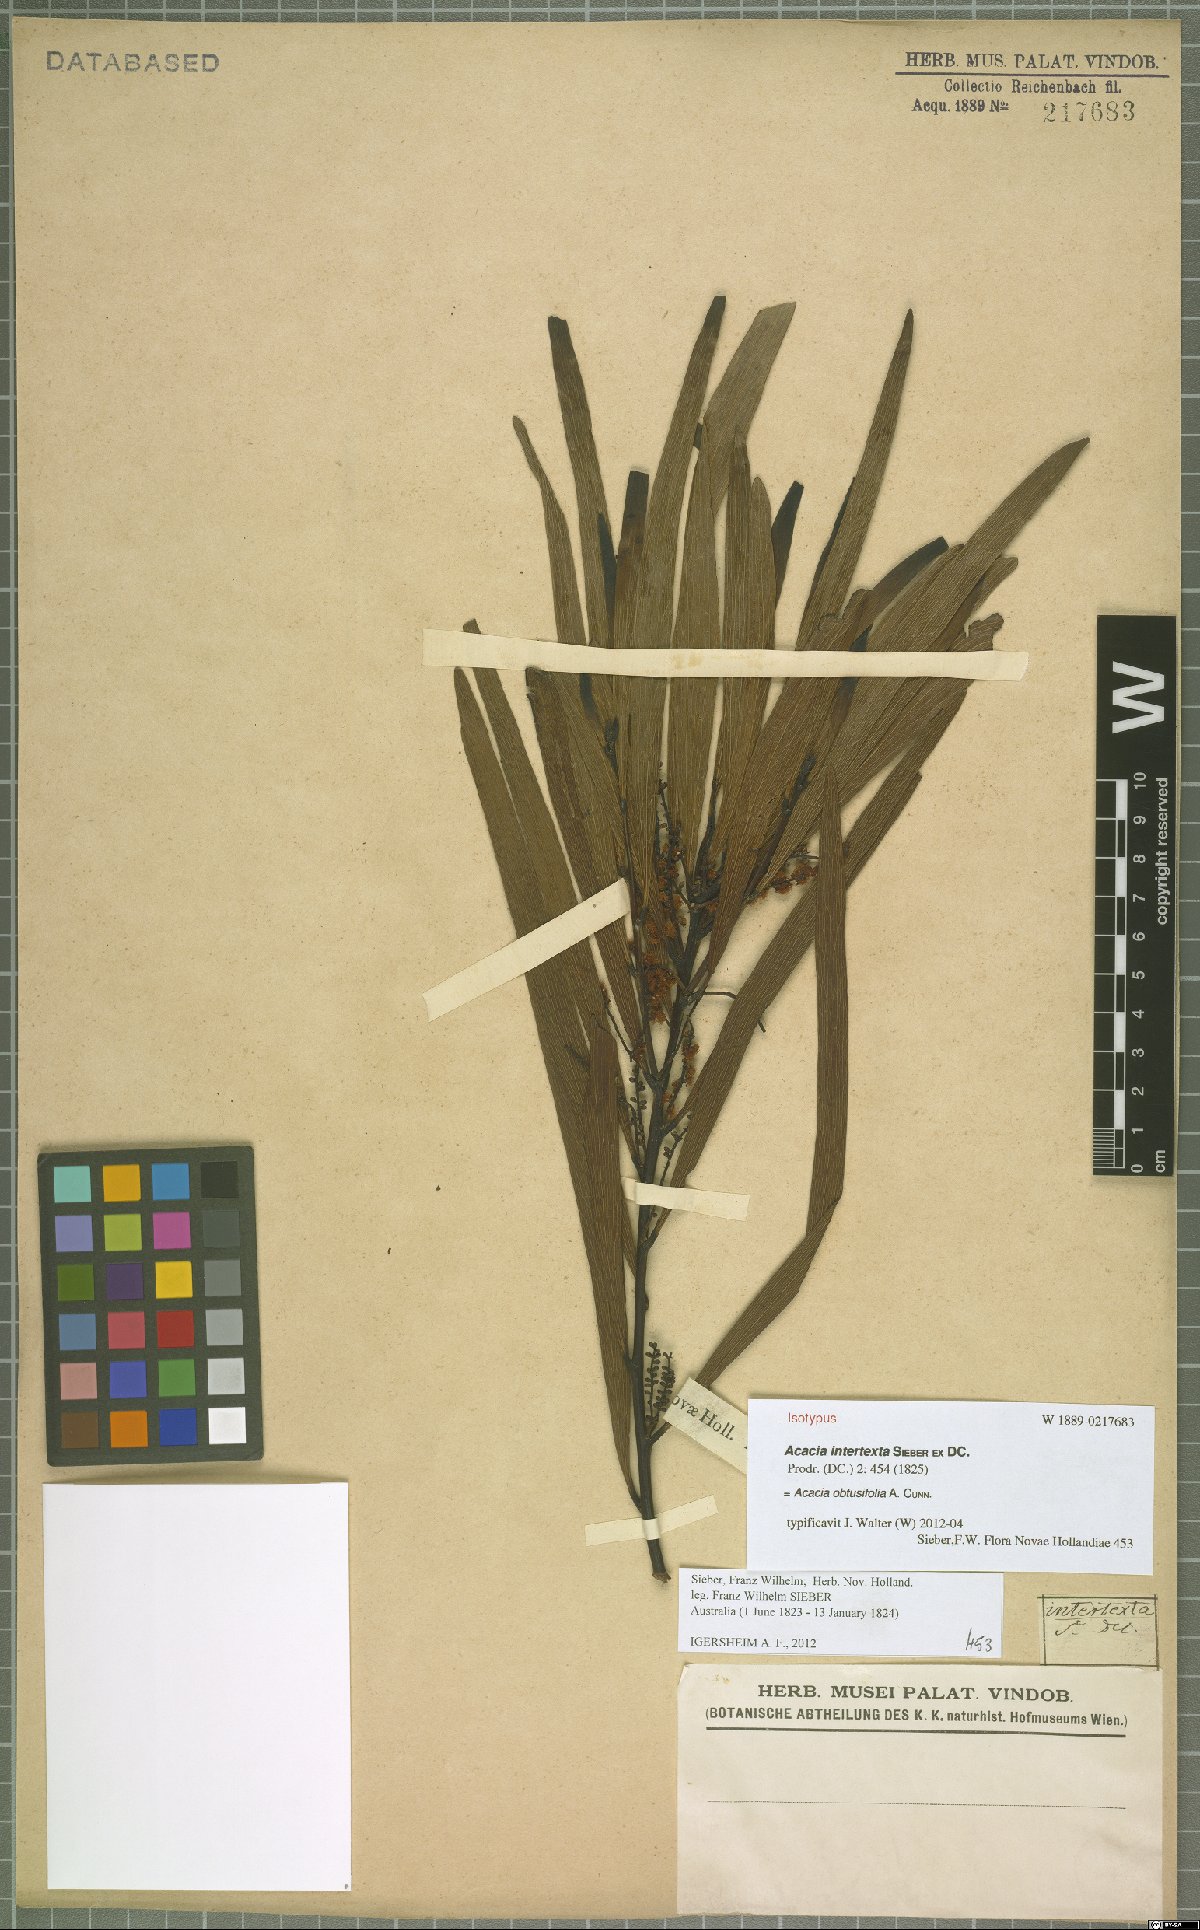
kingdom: Plantae
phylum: Tracheophyta
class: Magnoliopsida
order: Fabales
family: Fabaceae
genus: Acacia
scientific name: Acacia obtusifolia
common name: Stiff-leaf wattle
